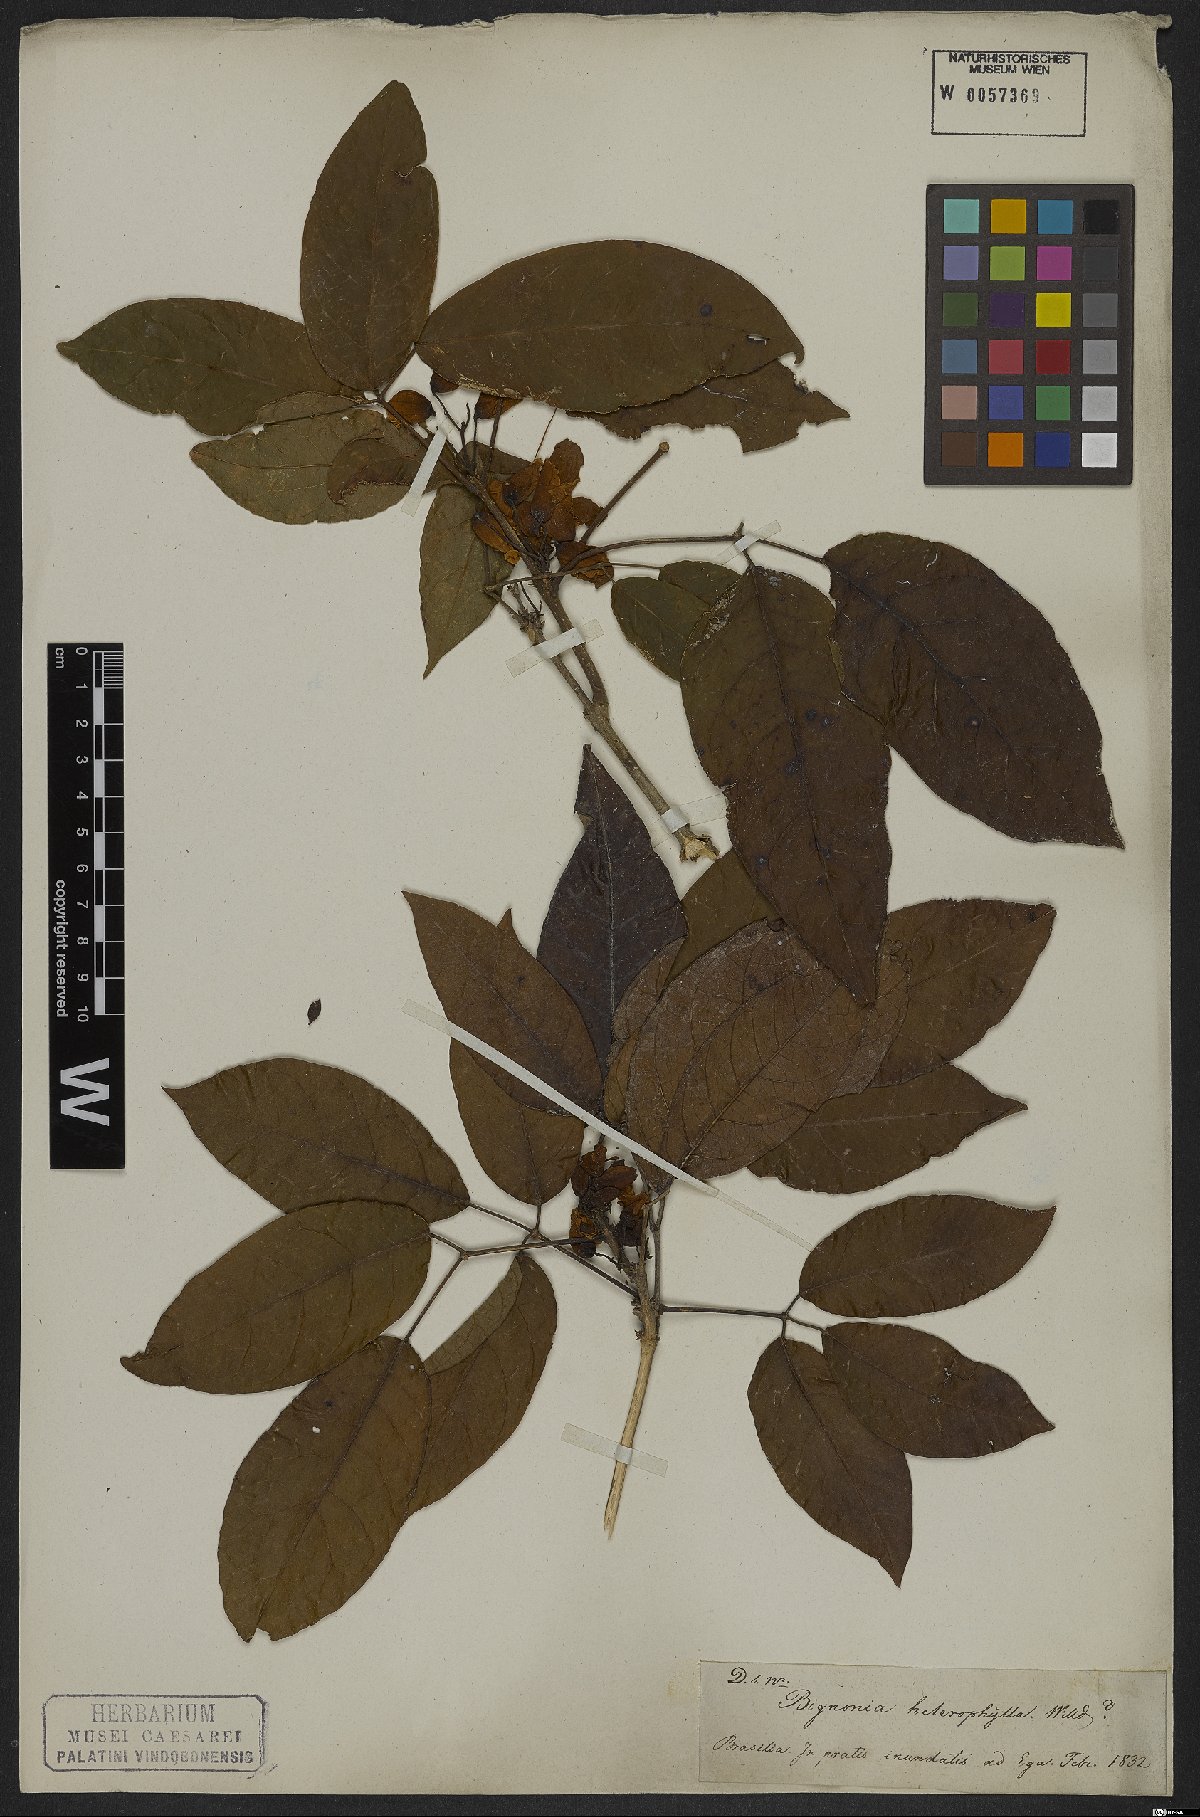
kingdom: Plantae
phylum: Tracheophyta
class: Magnoliopsida
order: Lamiales
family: Bignoniaceae
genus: Pachyptera
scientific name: Pachyptera kerere
